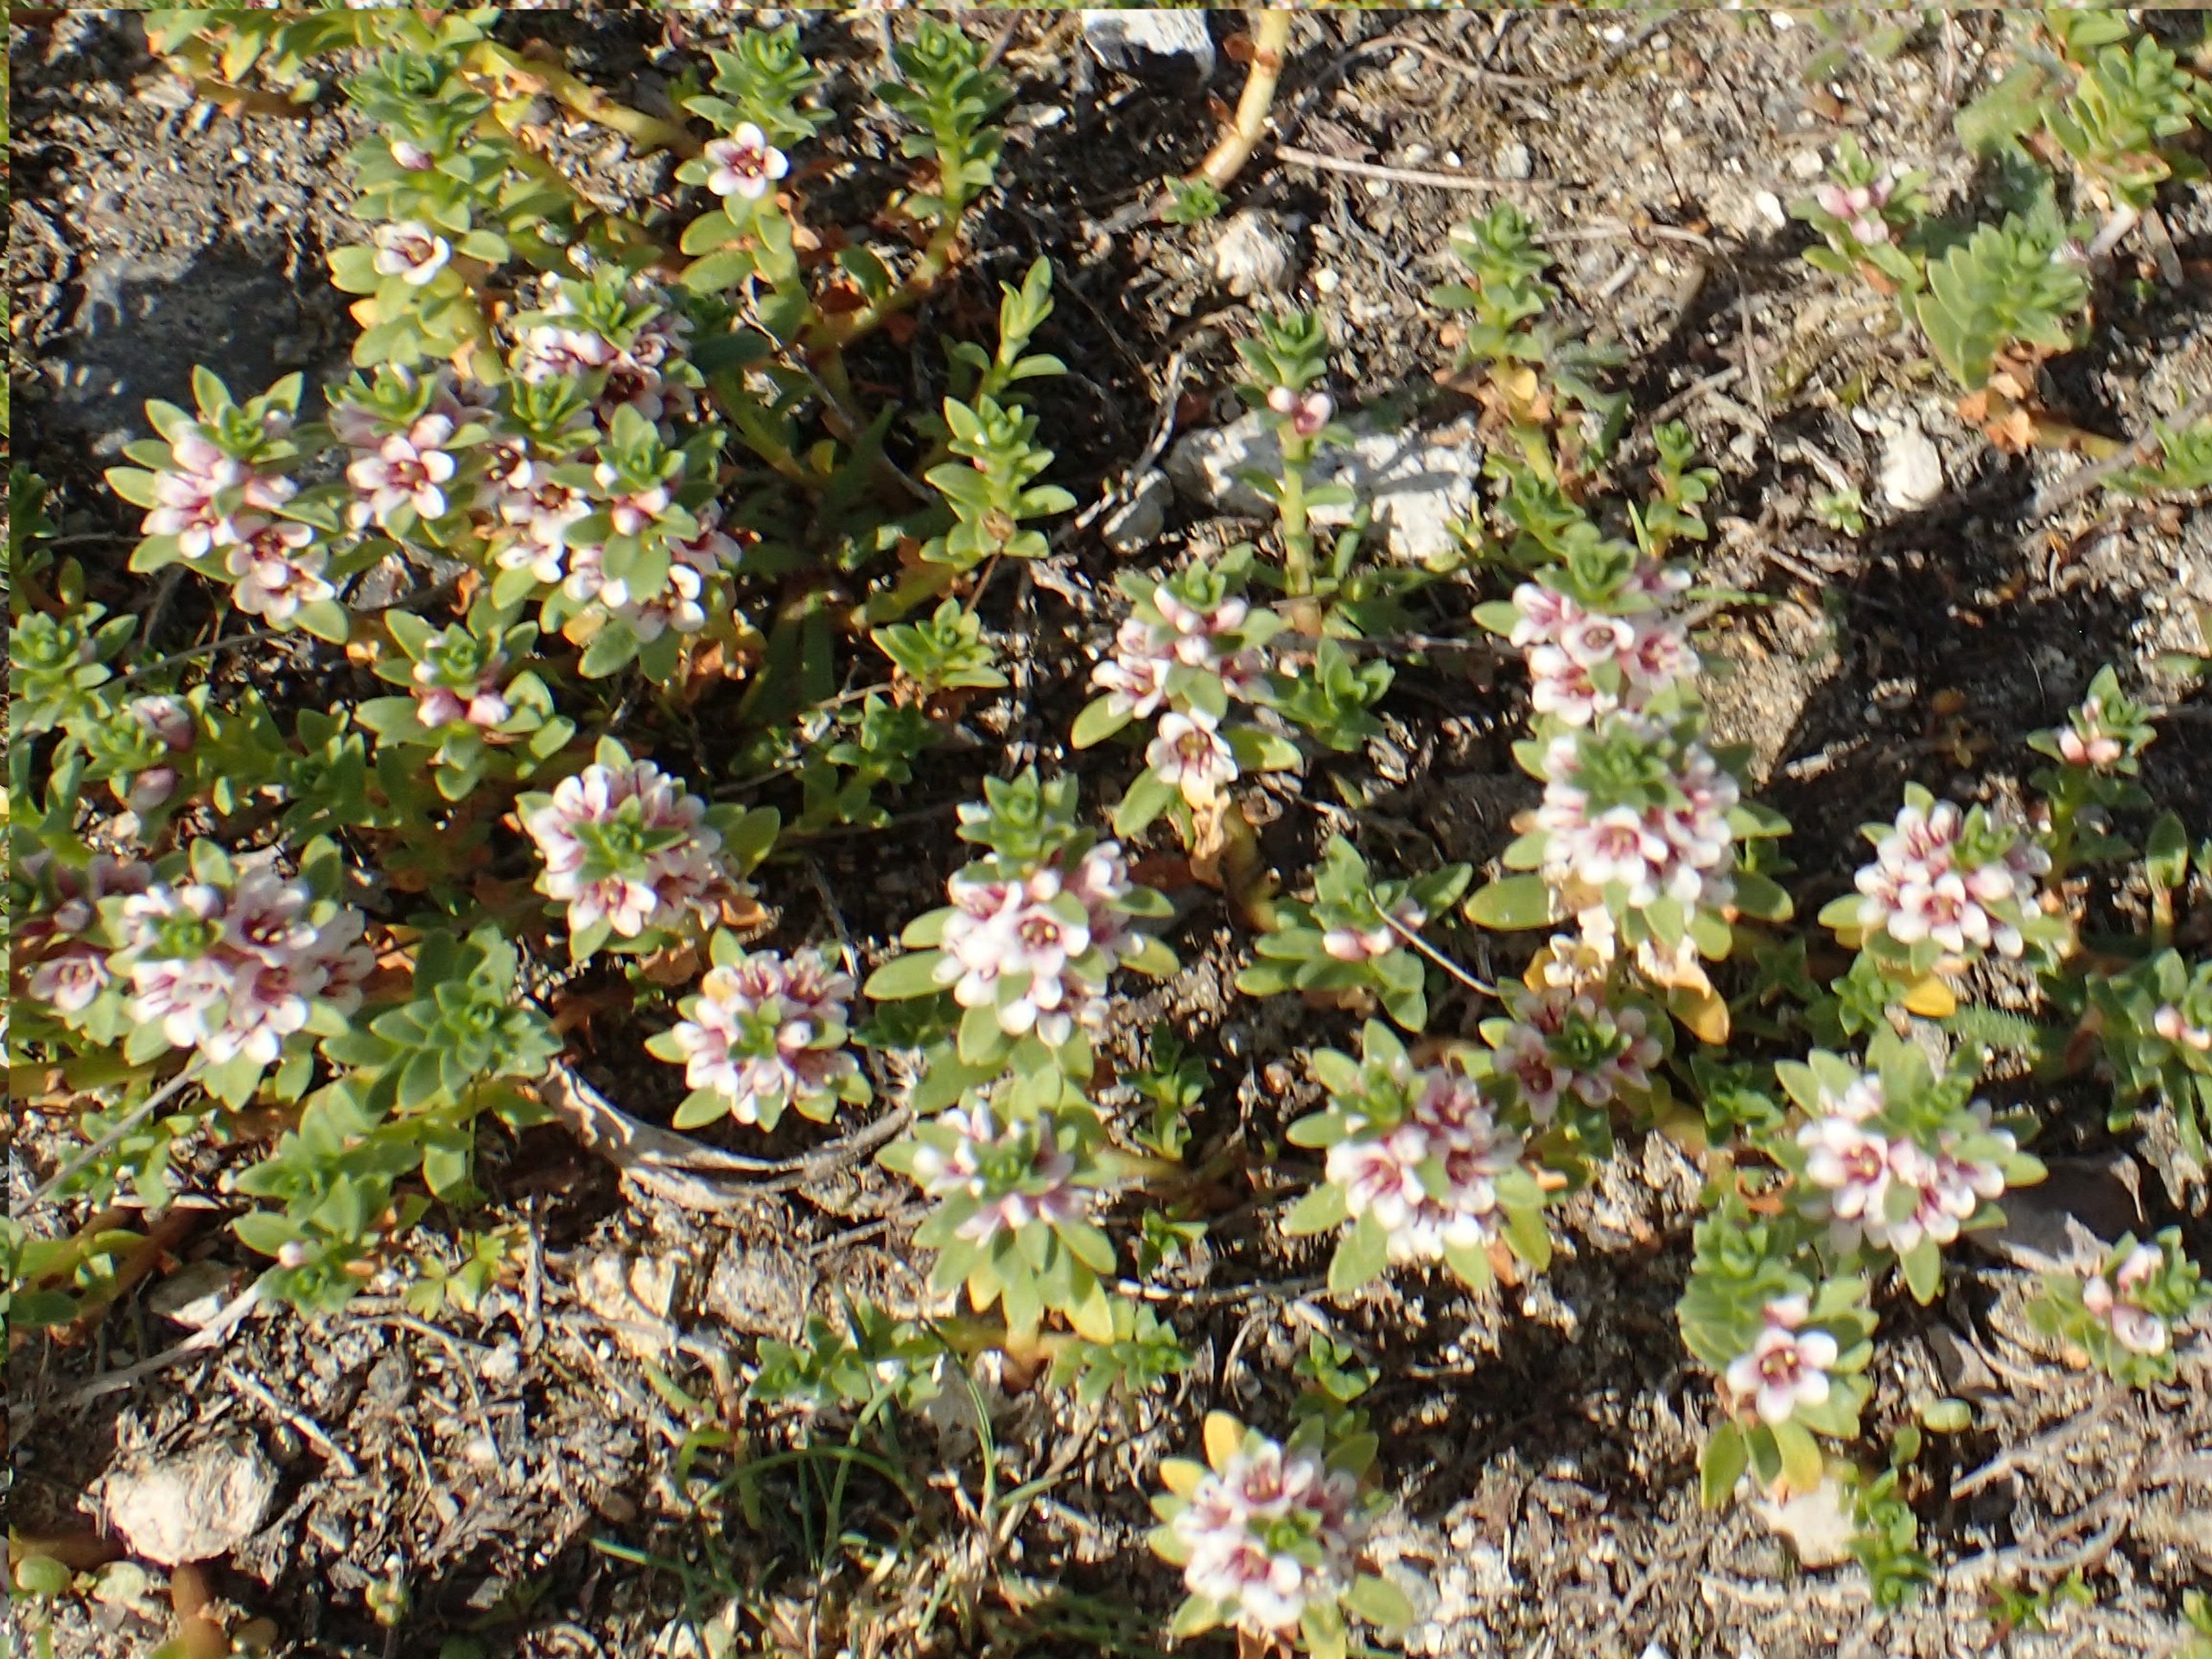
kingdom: Plantae
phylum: Tracheophyta
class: Magnoliopsida
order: Ericales
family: Primulaceae
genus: Lysimachia
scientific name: Lysimachia maritima
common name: Sandkryb
